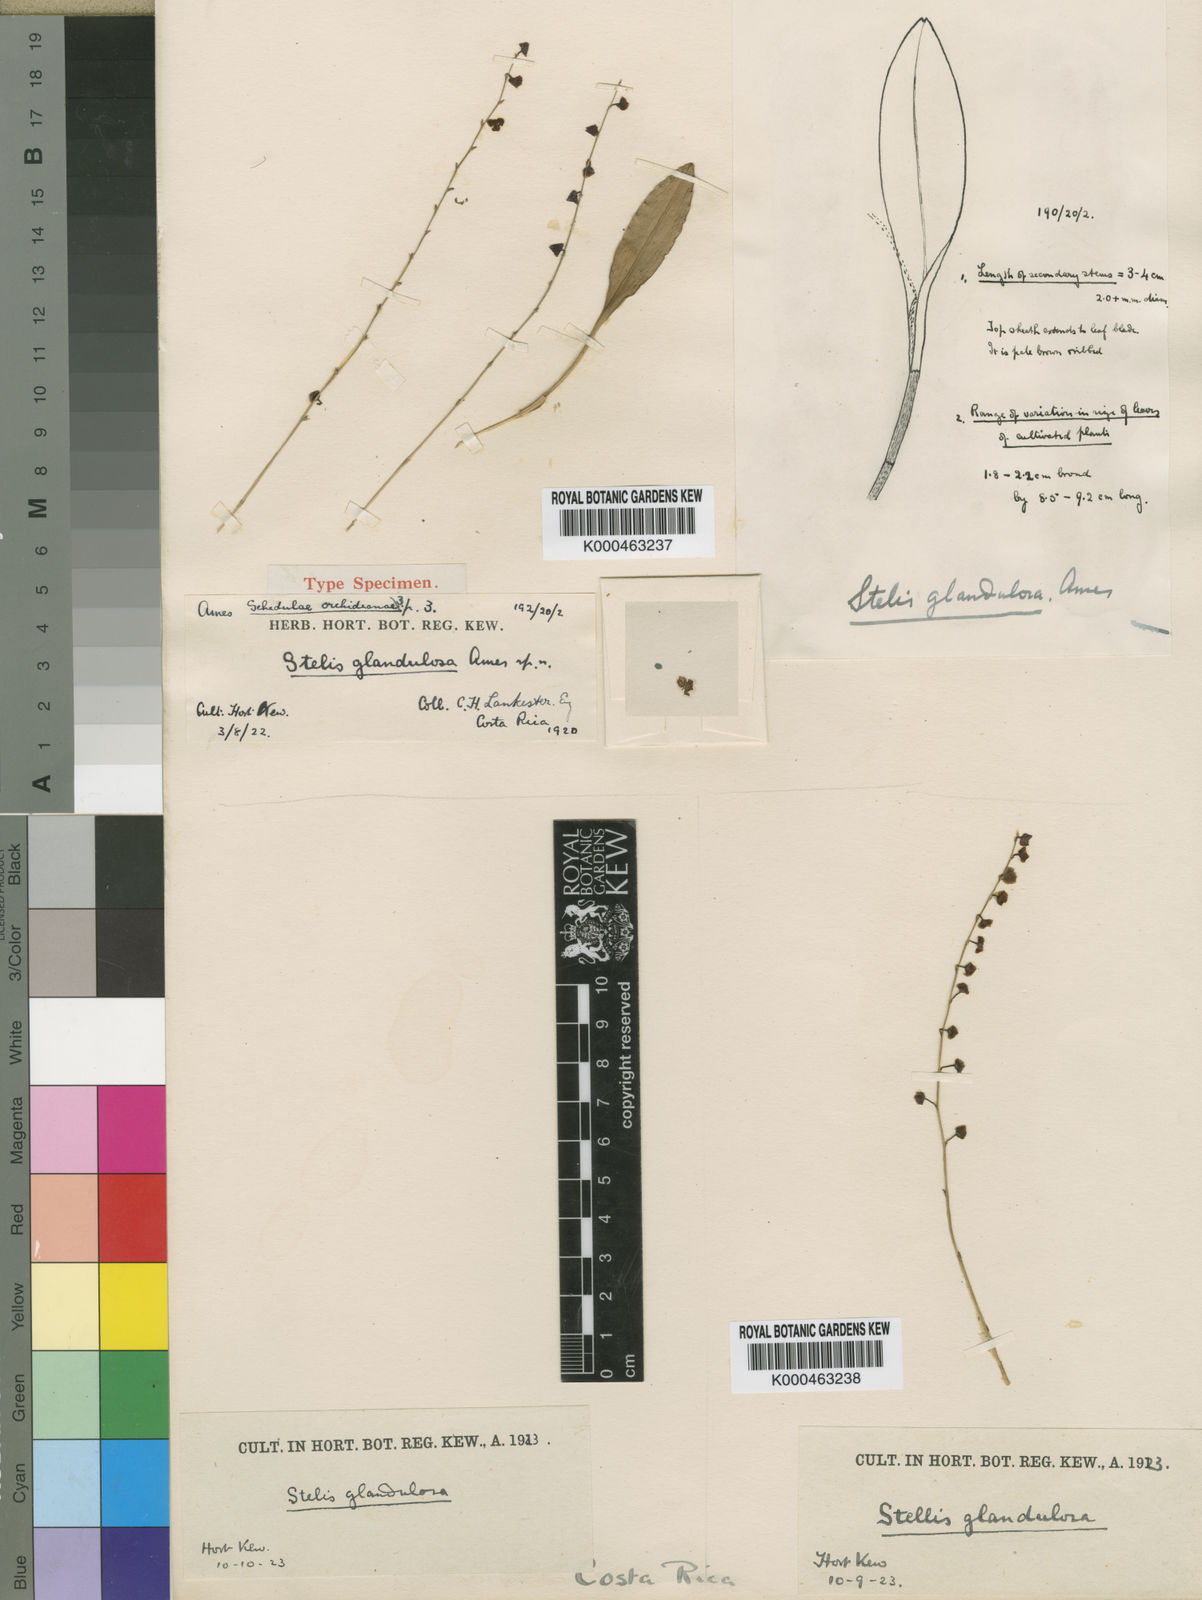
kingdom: Plantae
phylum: Tracheophyta
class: Liliopsida
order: Asparagales
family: Orchidaceae
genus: Stelis
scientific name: Stelis superbiens
